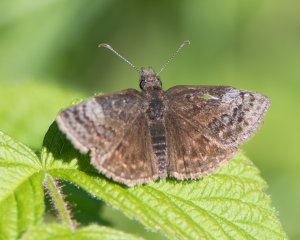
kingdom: Animalia
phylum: Arthropoda
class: Insecta
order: Lepidoptera
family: Hesperiidae
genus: Erynnis
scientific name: Erynnis icelus
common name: Dreamy Duskywing
